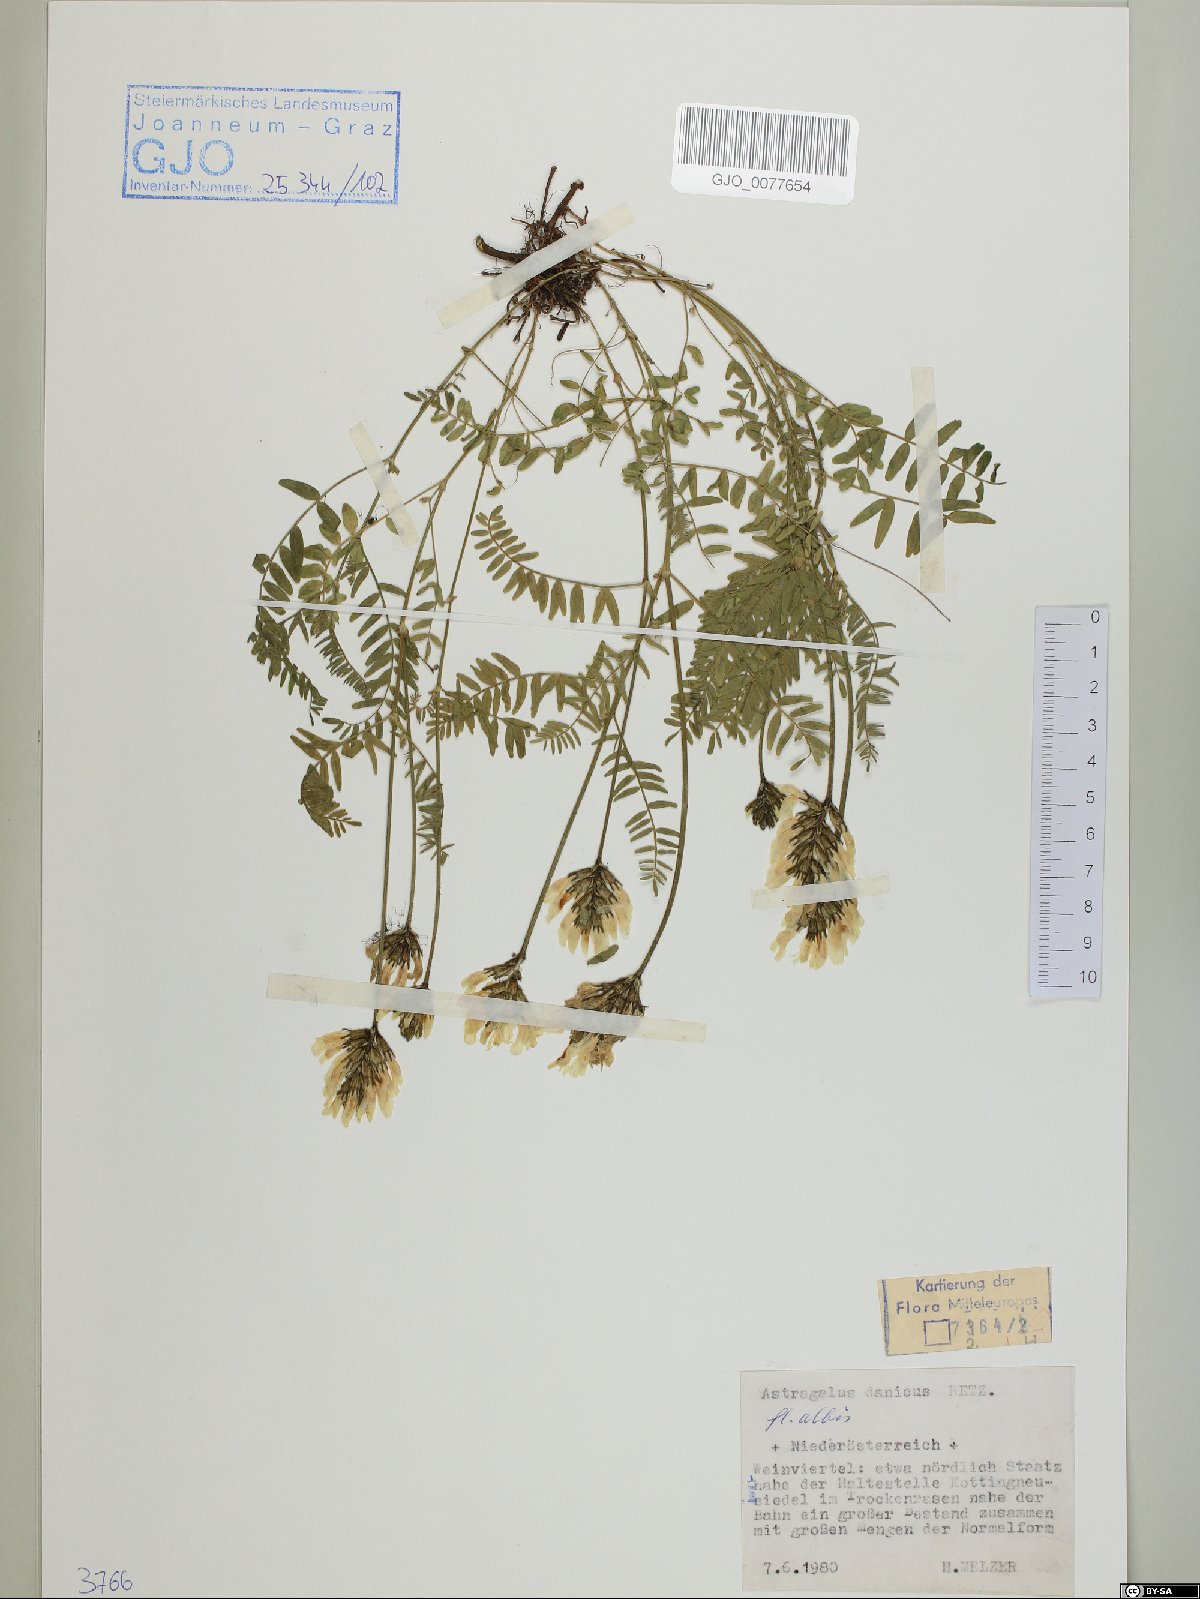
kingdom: Plantae
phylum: Tracheophyta
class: Magnoliopsida
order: Fabales
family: Fabaceae
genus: Astragalus
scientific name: Astragalus danicus
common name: Purple milk-vetch
